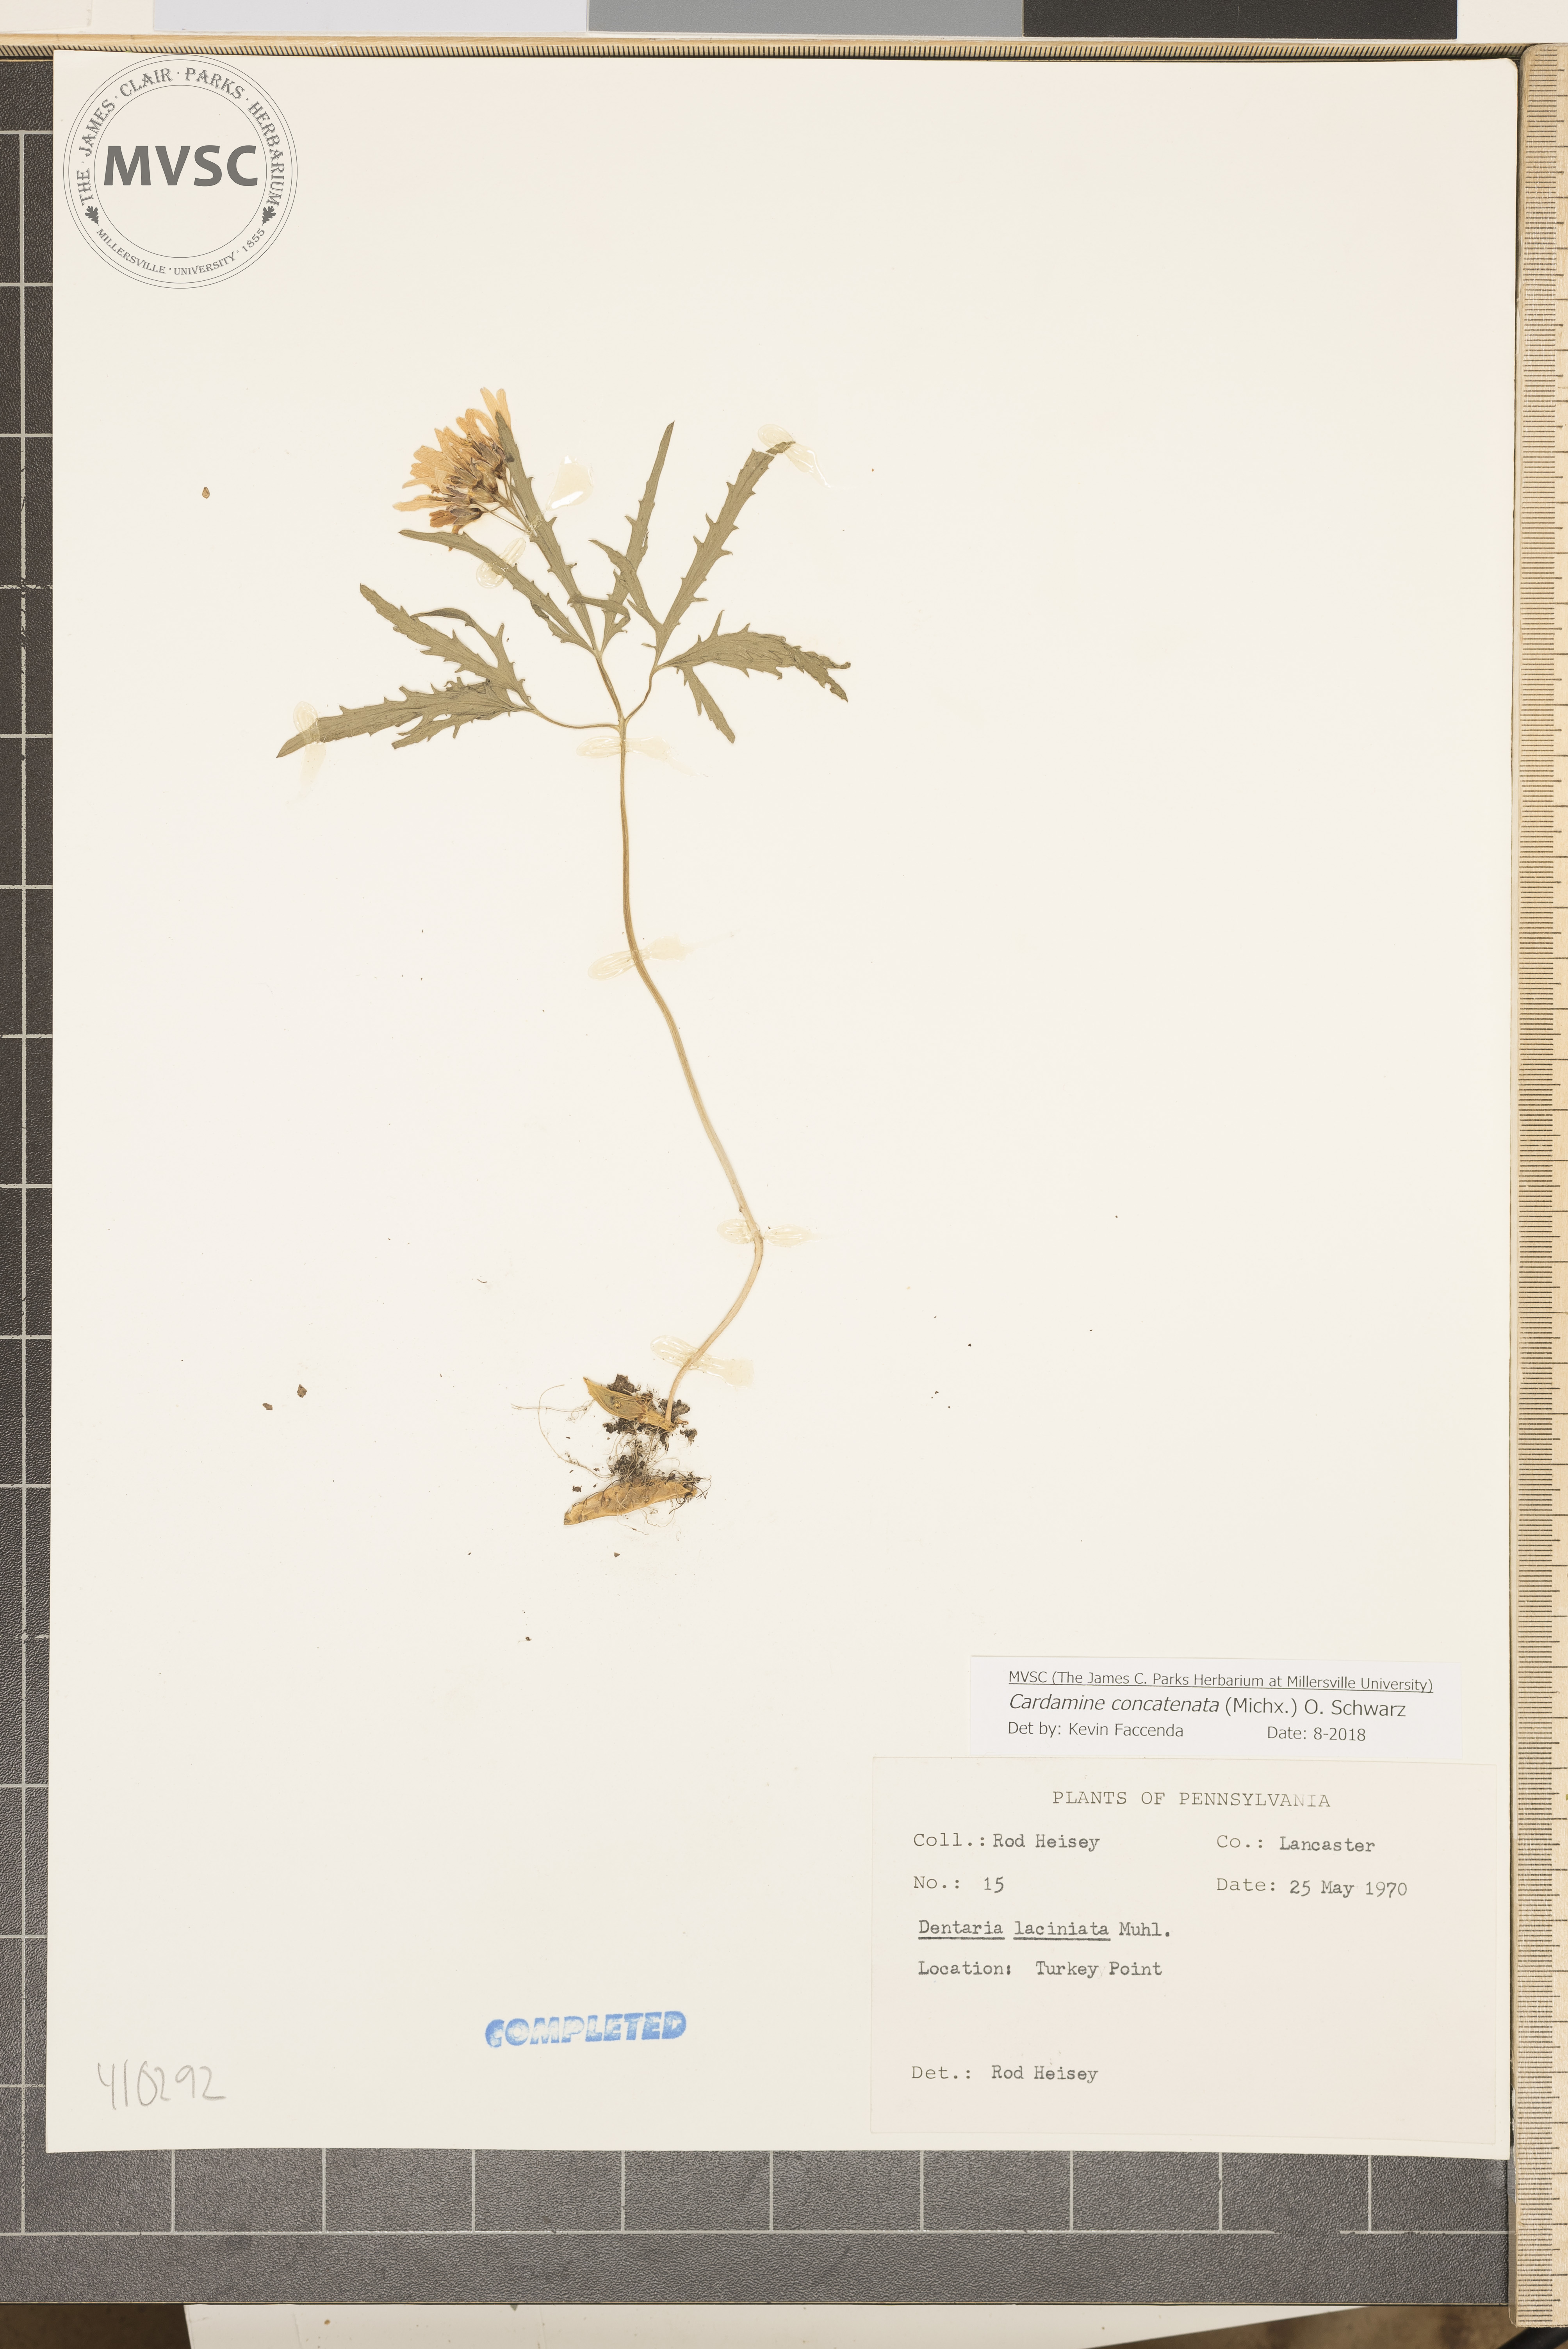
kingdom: Plantae
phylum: Tracheophyta
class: Magnoliopsida
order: Brassicales
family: Brassicaceae
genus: Cardamine
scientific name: Cardamine concatenata
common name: Cut-leaf toothcup
